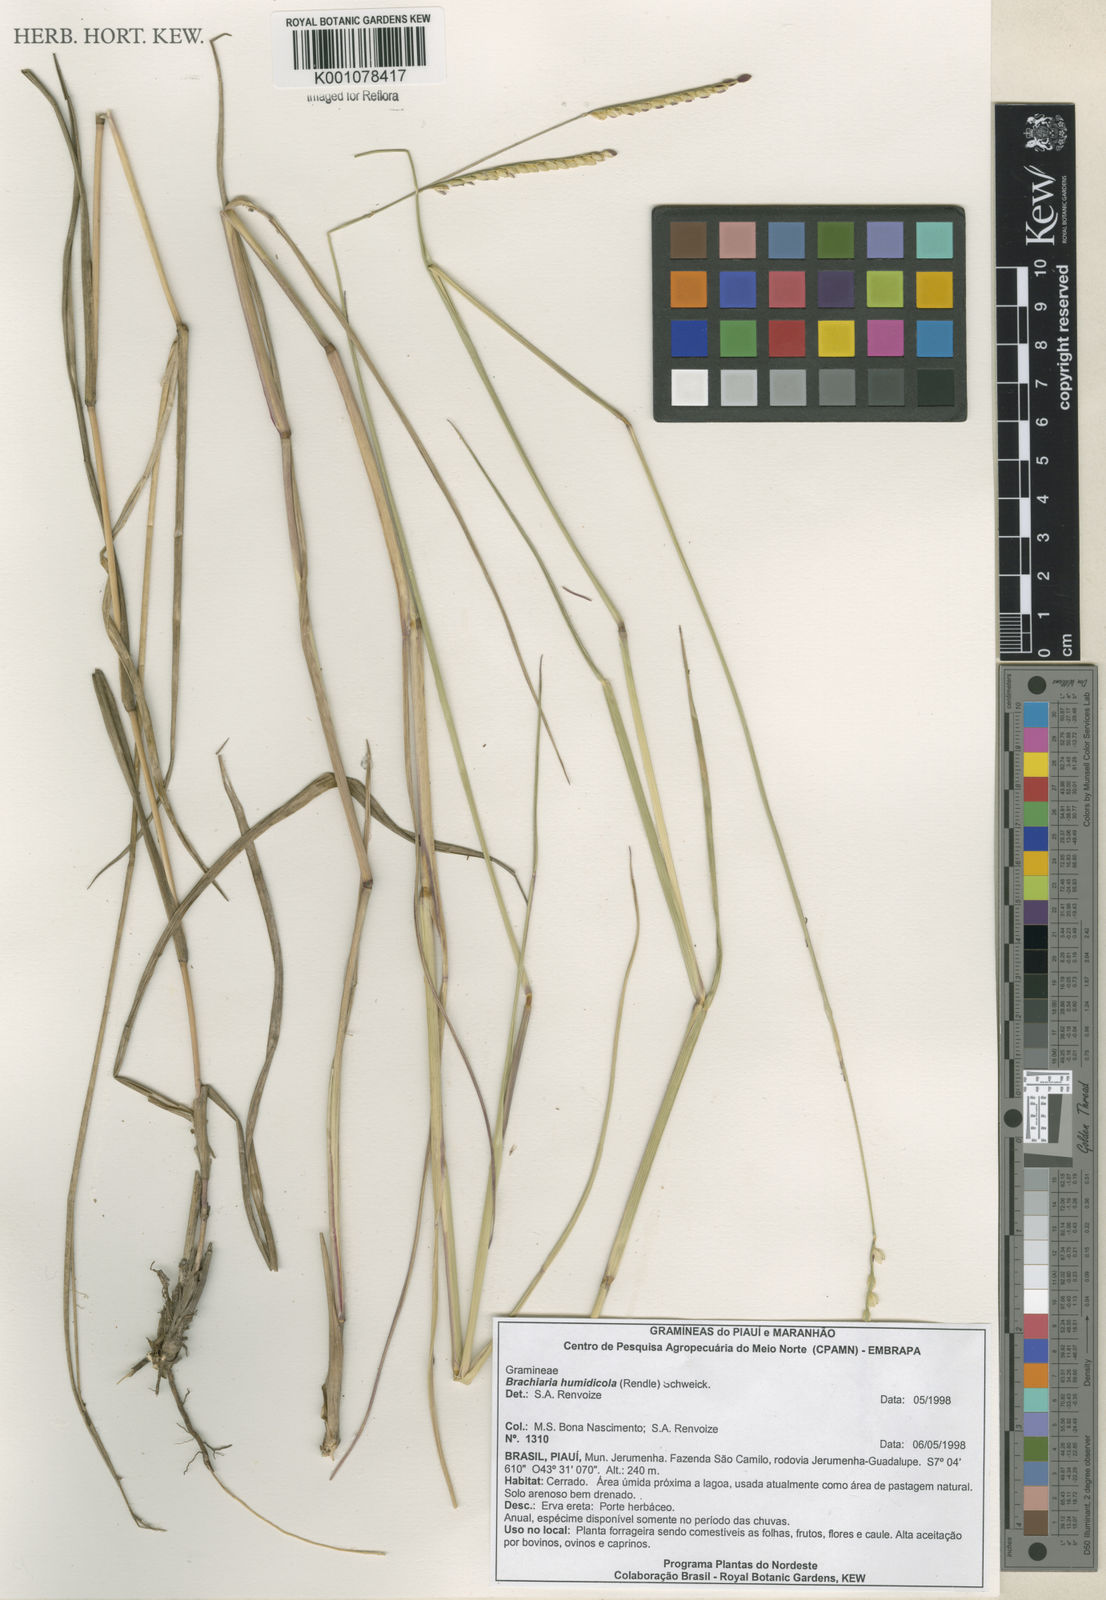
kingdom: Plantae
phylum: Tracheophyta
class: Liliopsida
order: Poales
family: Poaceae
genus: Urochloa
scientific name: Urochloa dictyoneura
